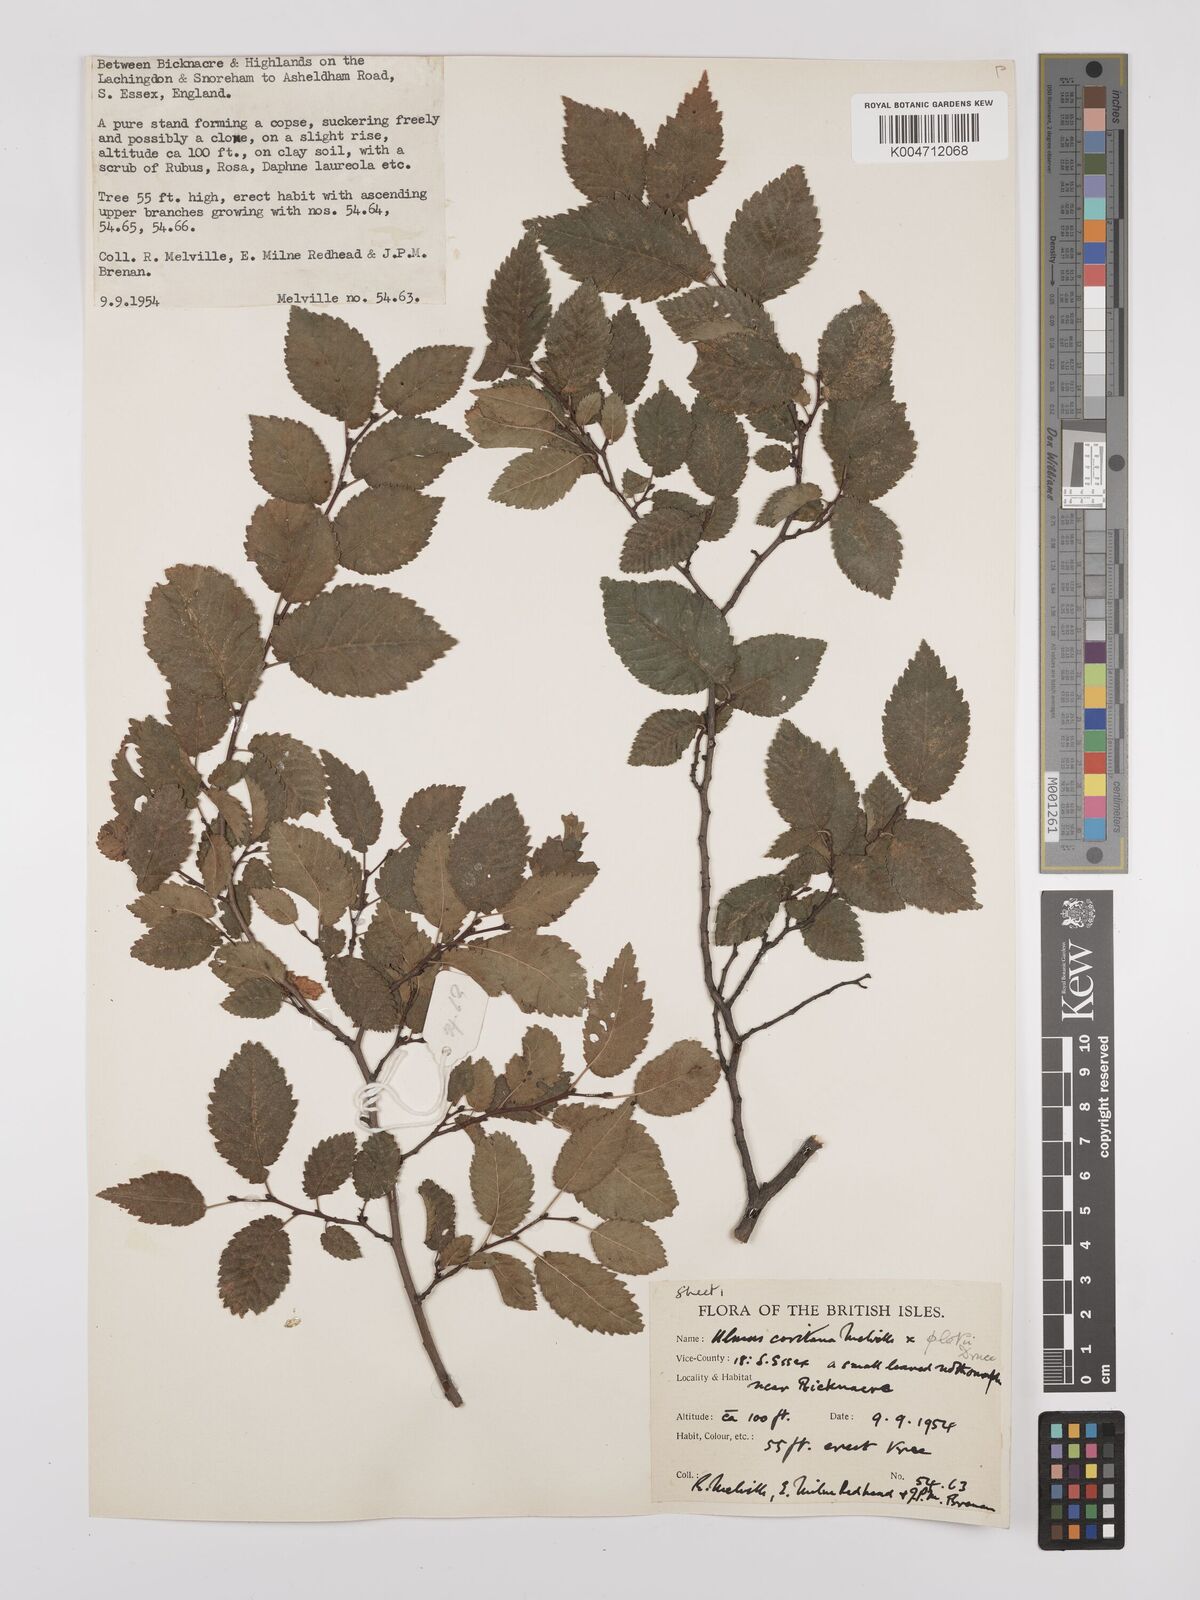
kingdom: Plantae
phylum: Tracheophyta
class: Magnoliopsida
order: Rosales
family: Ulmaceae
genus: Ulmus
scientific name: Ulmus minor
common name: Small-leaved elm
